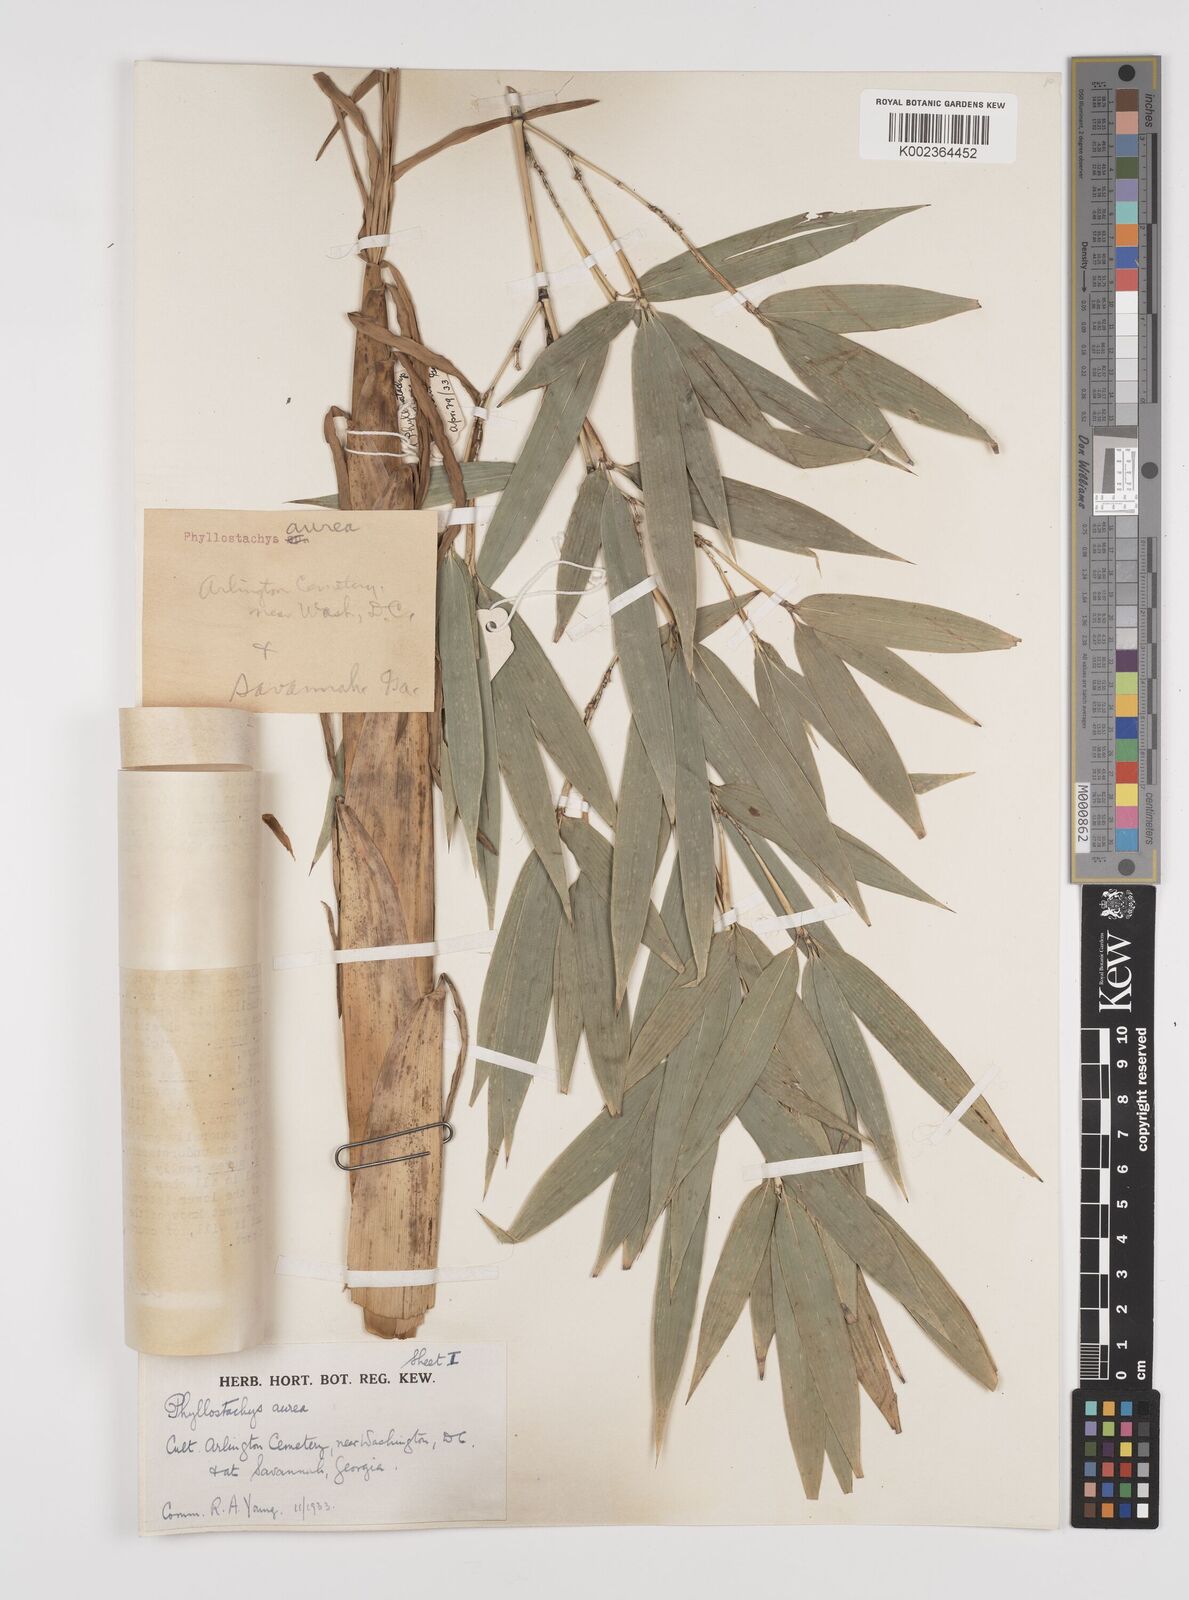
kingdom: Plantae
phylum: Tracheophyta
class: Liliopsida
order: Poales
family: Poaceae
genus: Phyllostachys
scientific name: Phyllostachys aurea
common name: Golden bamboo
